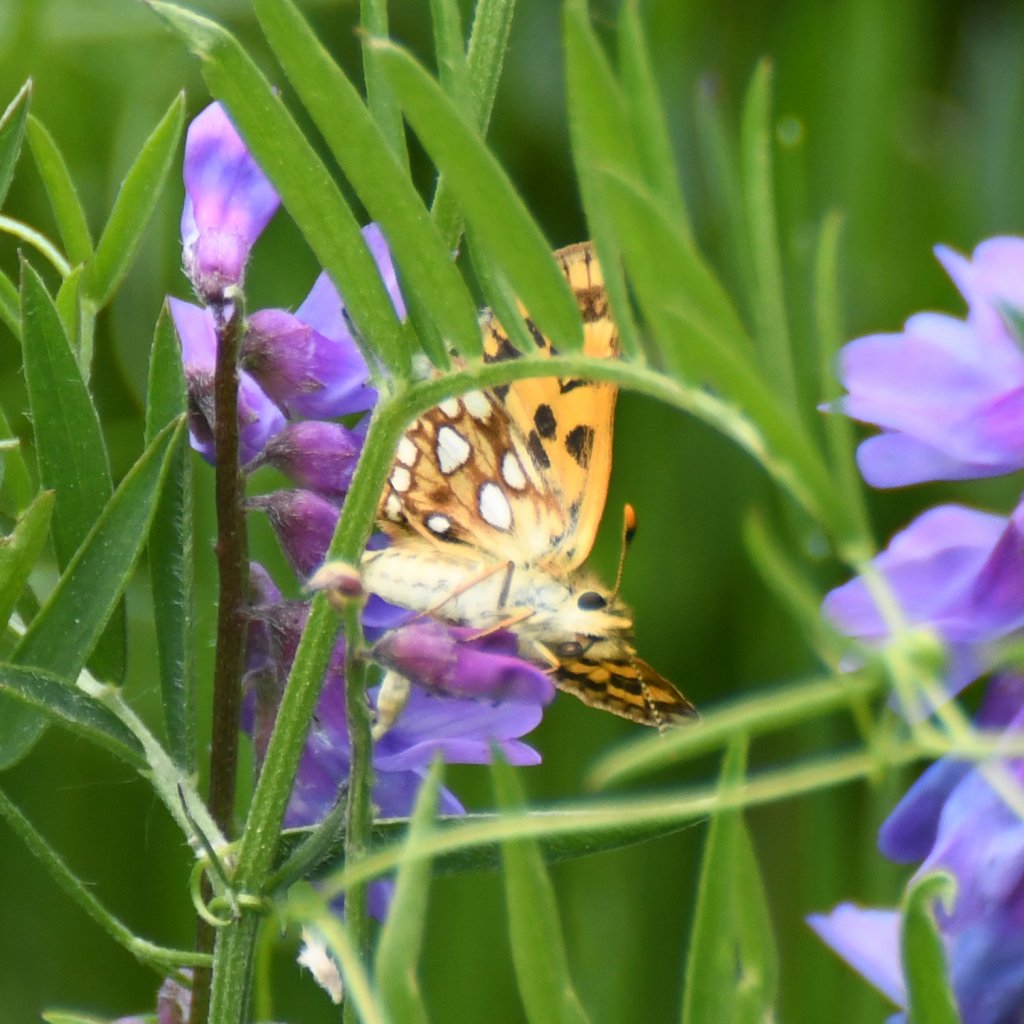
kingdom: Animalia
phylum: Arthropoda
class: Insecta
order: Lepidoptera
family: Hesperiidae
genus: Carterocephalus
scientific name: Carterocephalus palaemon
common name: Chequered Skipper
